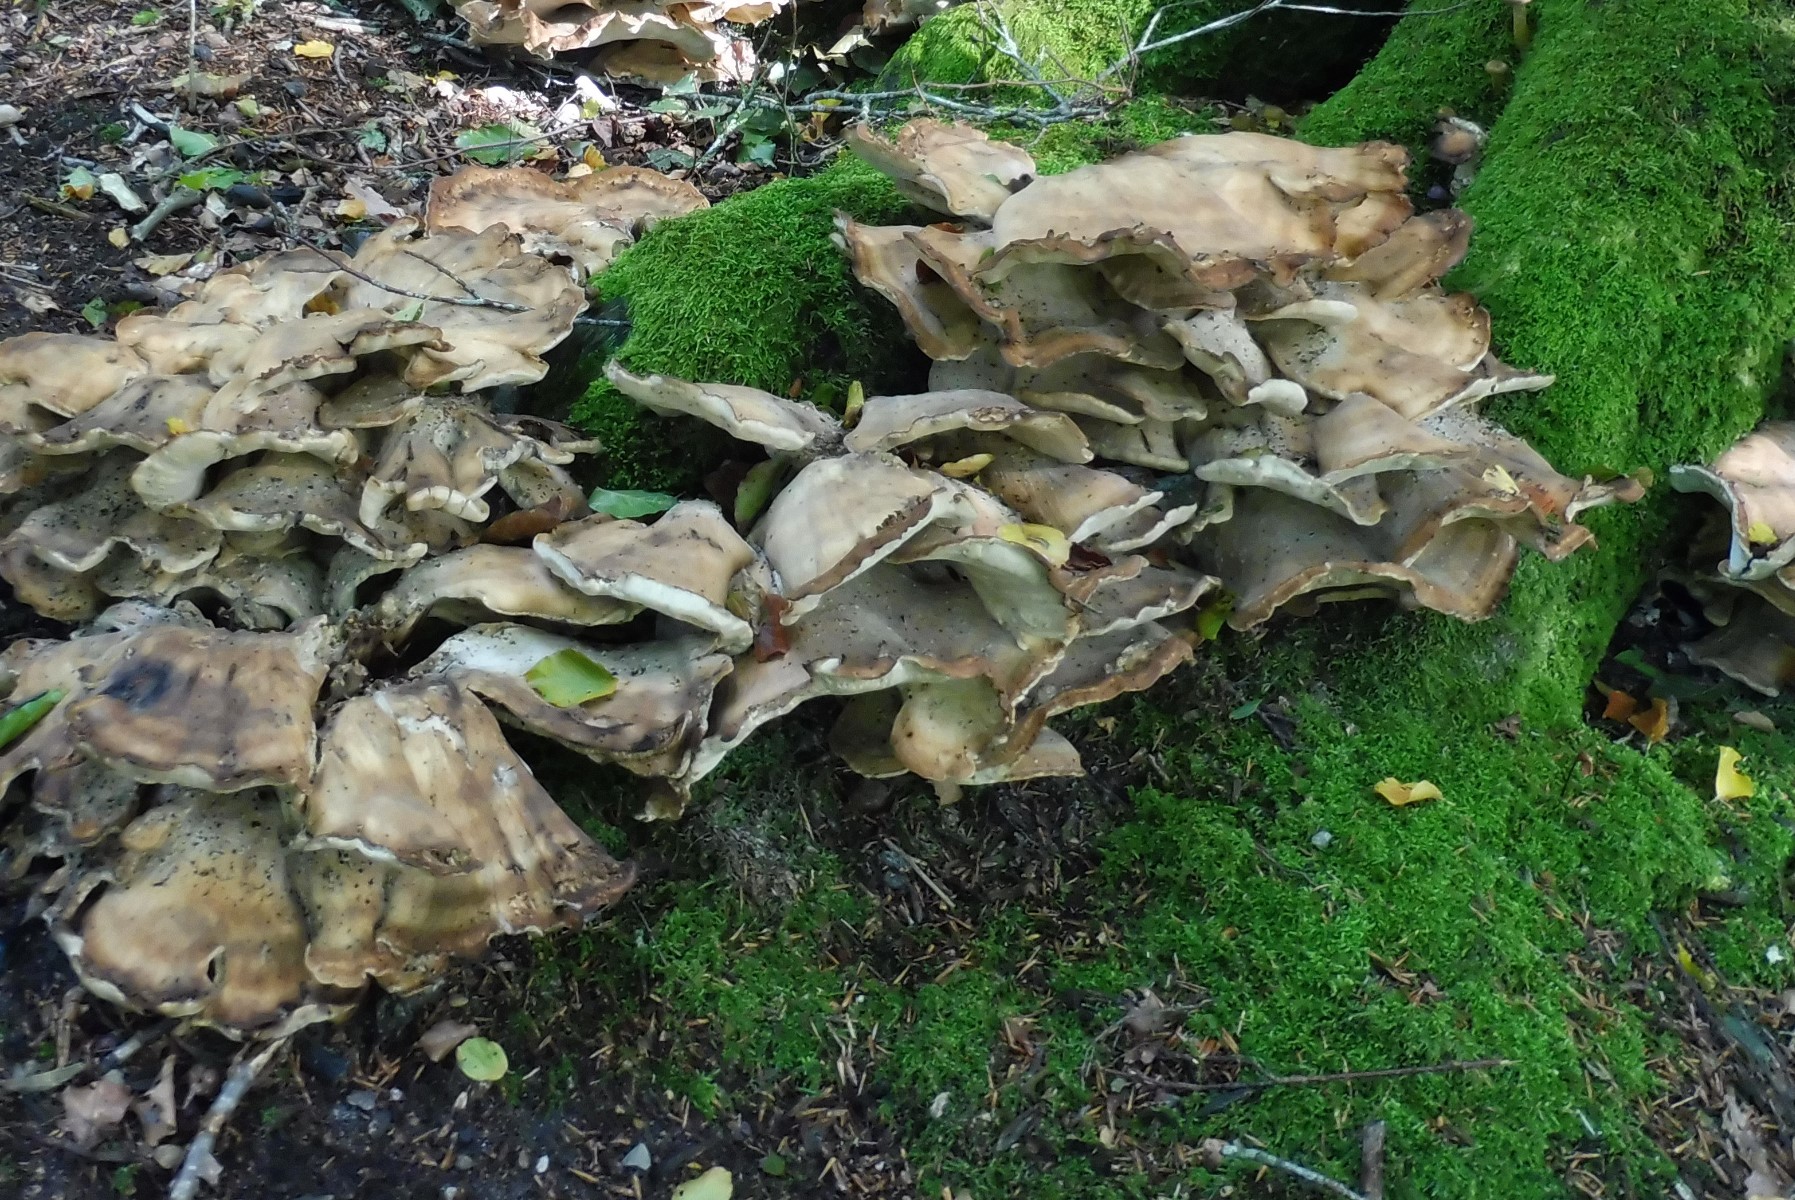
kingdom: Fungi
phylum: Basidiomycota
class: Agaricomycetes
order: Polyporales
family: Meripilaceae
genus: Meripilus
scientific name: Meripilus giganteus
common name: kæmpeporesvamp
